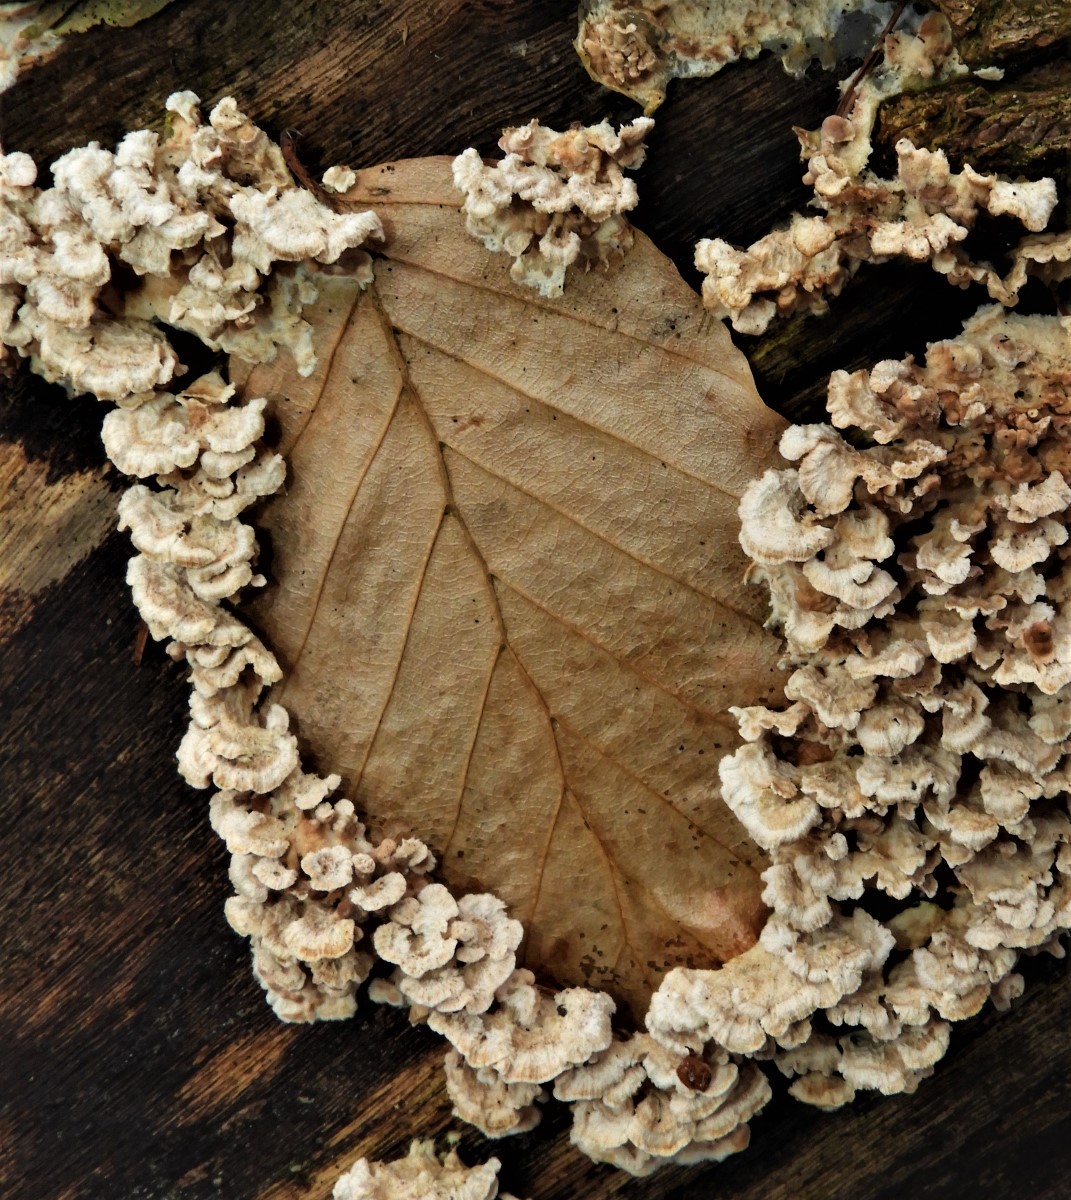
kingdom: Fungi
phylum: Basidiomycota
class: Agaricomycetes
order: Amylocorticiales
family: Amylocorticiaceae
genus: Plicaturopsis
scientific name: Plicaturopsis crispa
